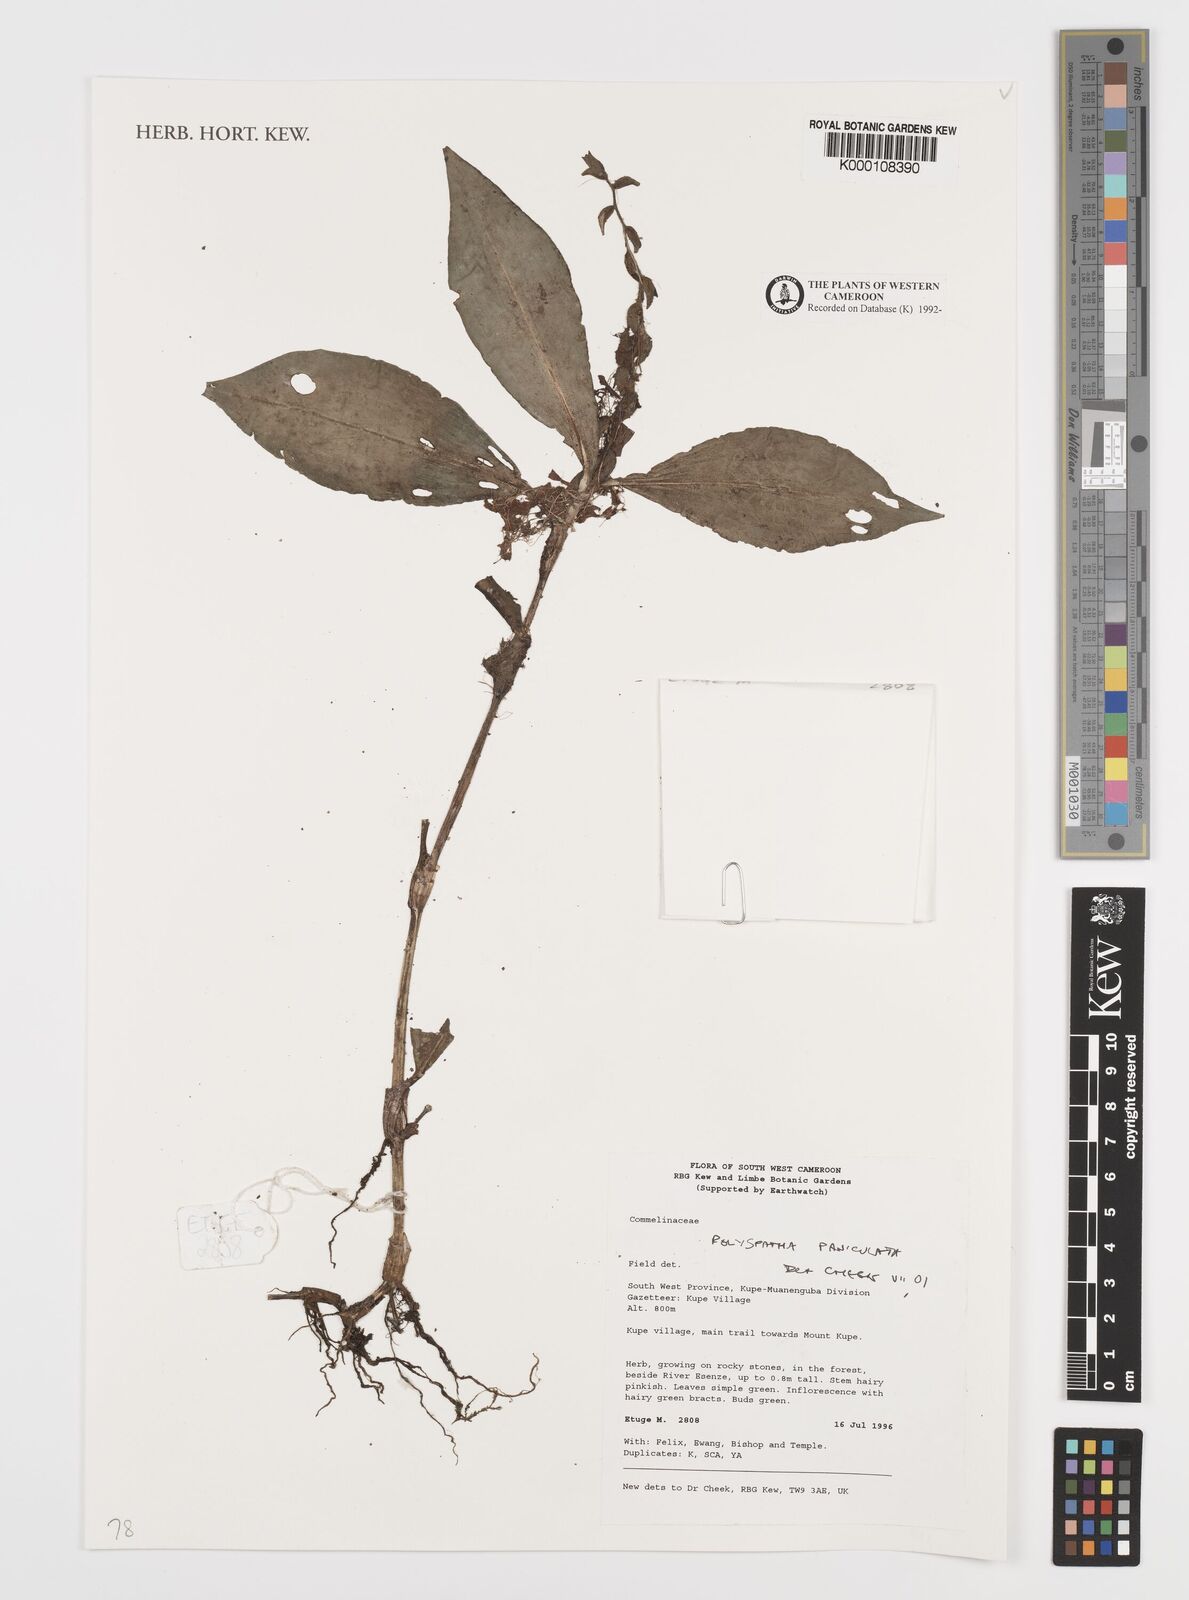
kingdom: Plantae
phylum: Tracheophyta
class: Liliopsida
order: Commelinales
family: Commelinaceae
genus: Polyspatha
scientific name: Polyspatha paniculata
